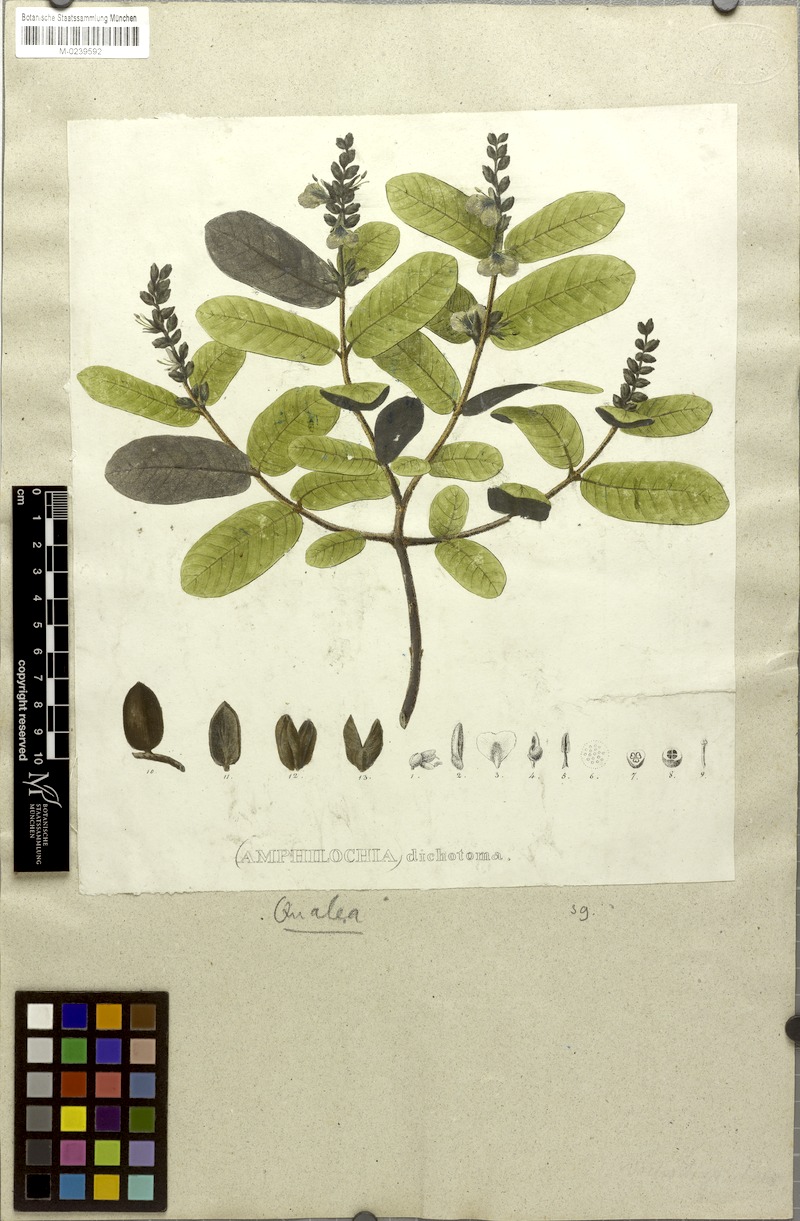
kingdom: Plantae
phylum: Tracheophyta
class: Magnoliopsida
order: Myrtales
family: Vochysiaceae
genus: Qualea
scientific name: Qualea cordata
